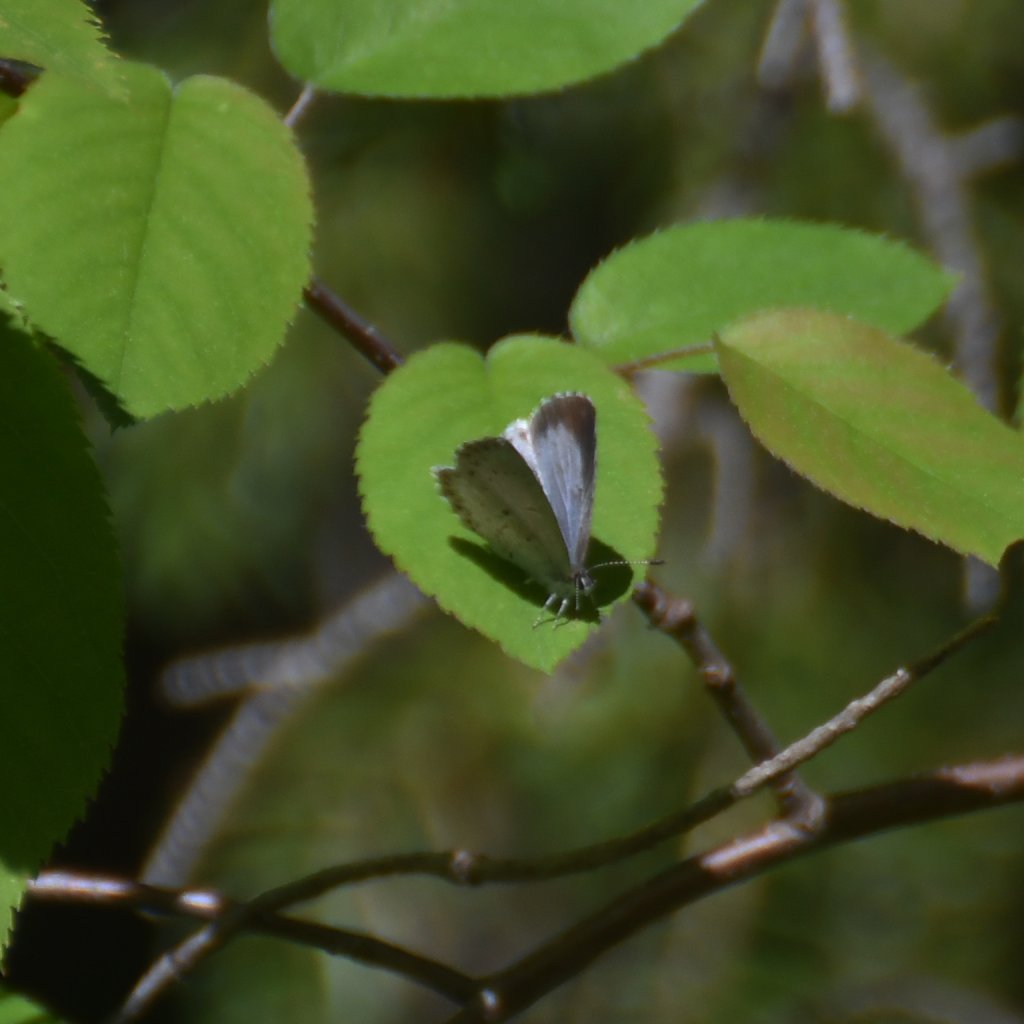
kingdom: Animalia
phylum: Arthropoda
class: Insecta
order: Lepidoptera
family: Lycaenidae
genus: Celastrina
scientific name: Celastrina lucia
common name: Northern Spring Azure
